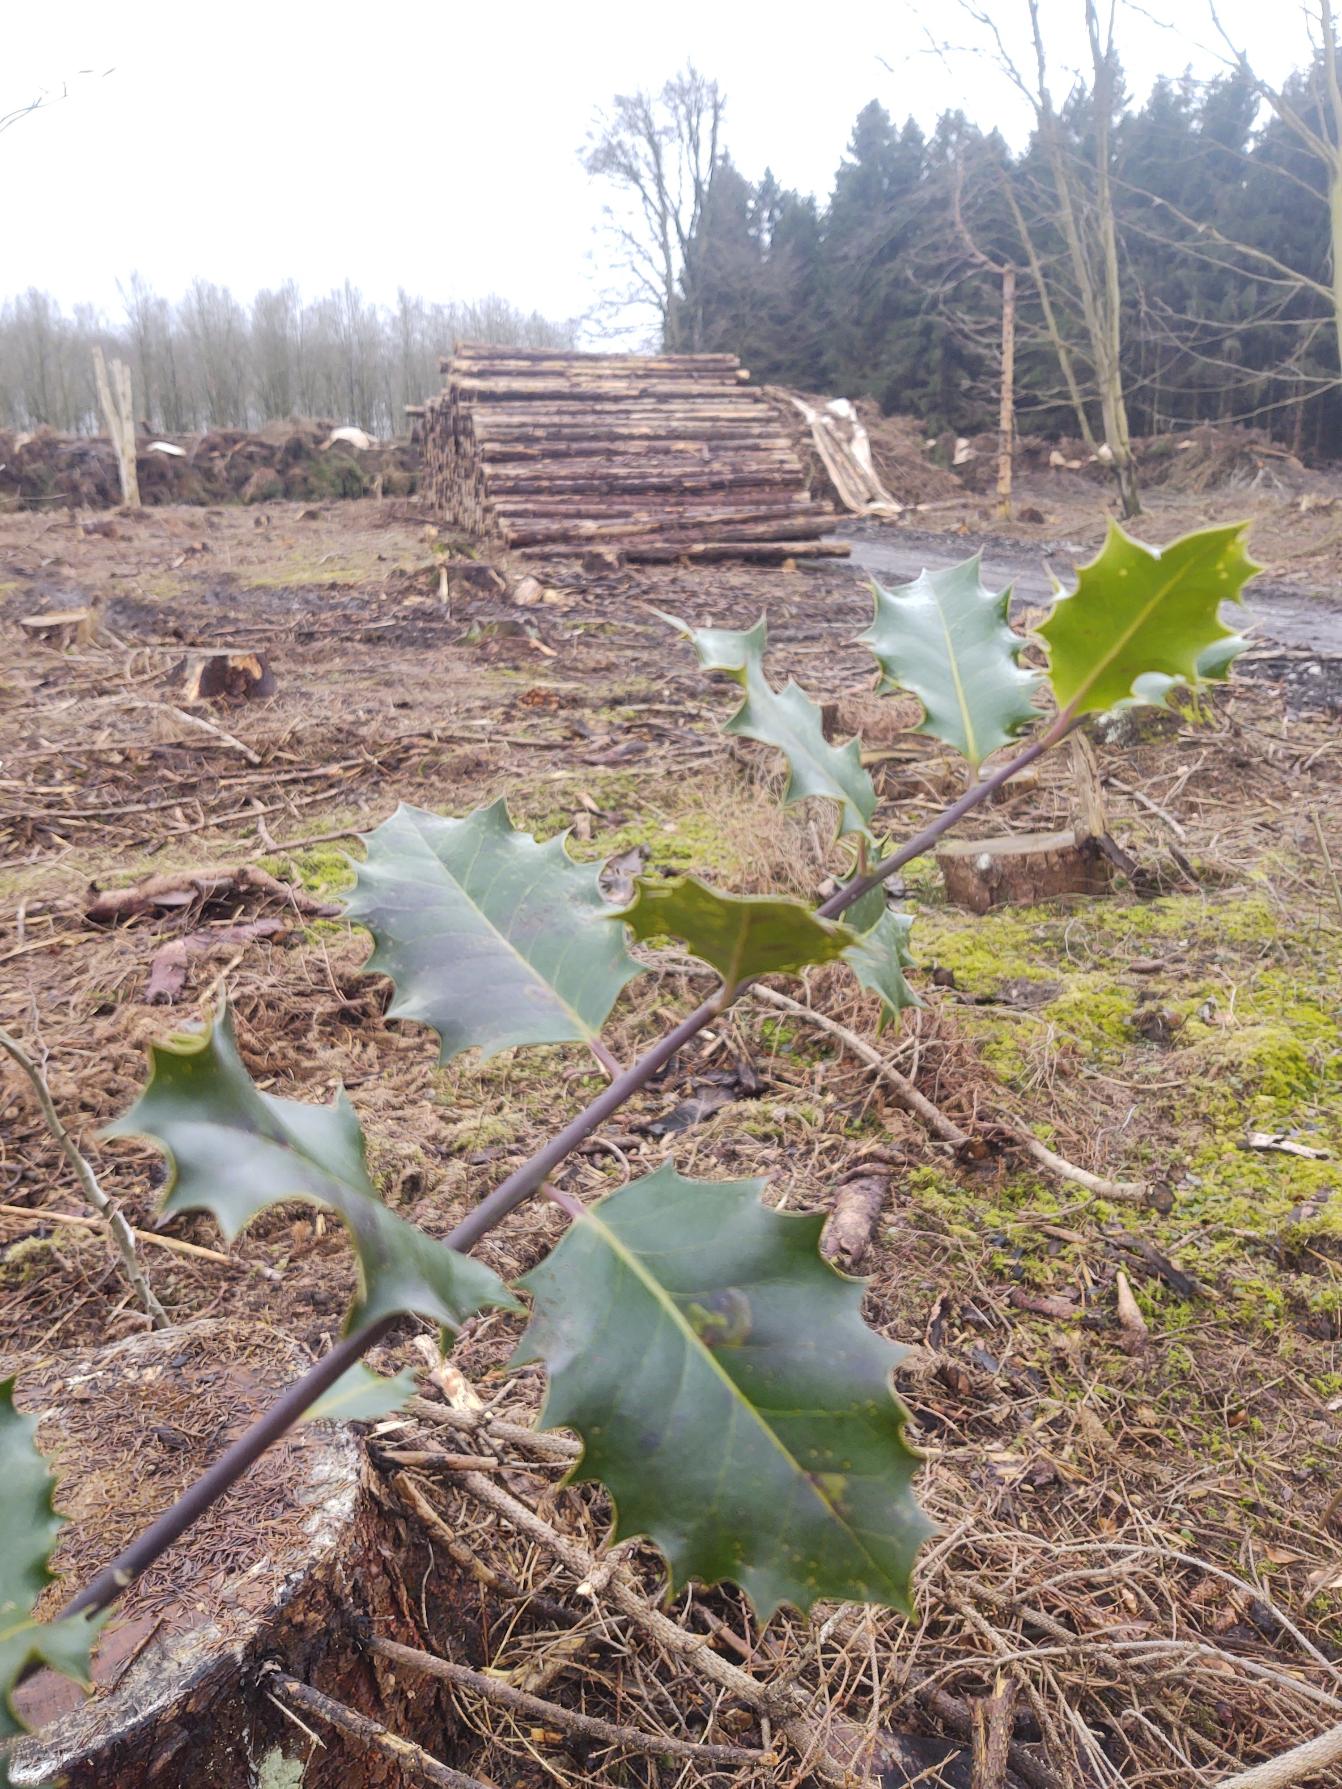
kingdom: Plantae
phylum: Tracheophyta
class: Magnoliopsida
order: Aquifoliales
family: Aquifoliaceae
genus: Ilex
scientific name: Ilex aquifolium
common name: Kristtorn
